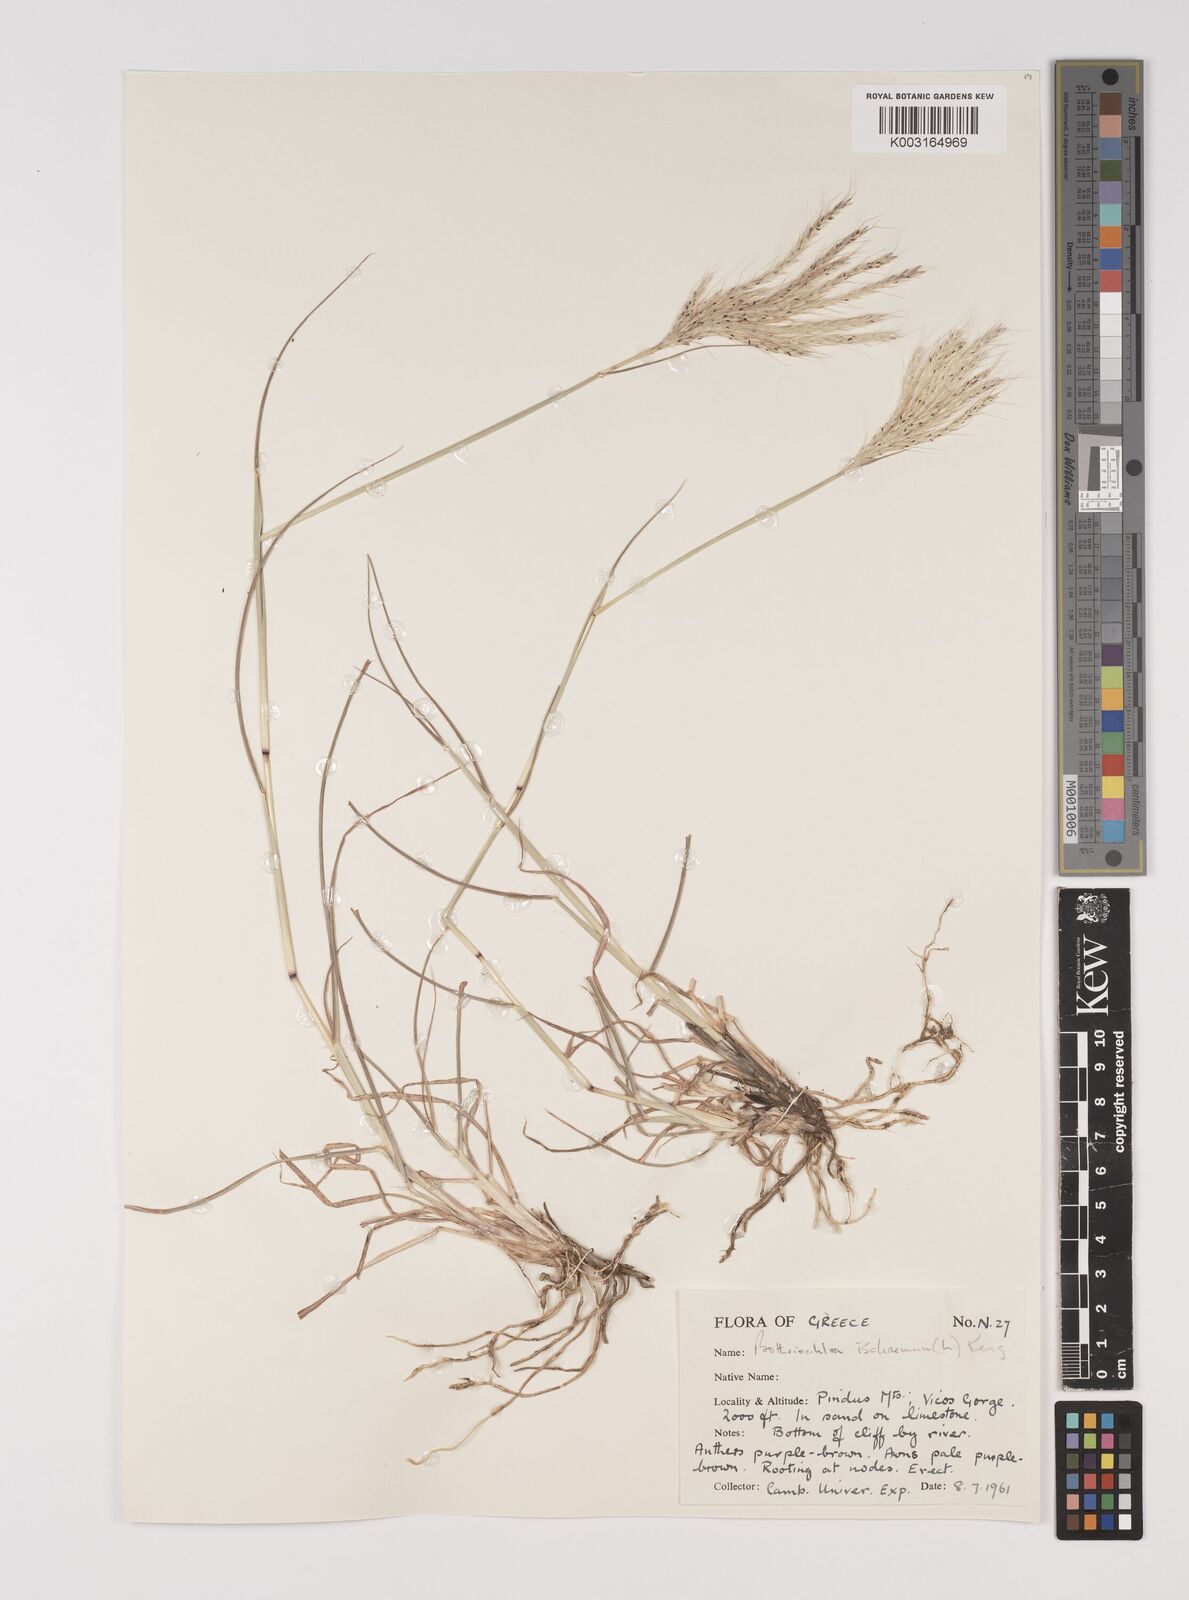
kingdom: Plantae
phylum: Tracheophyta
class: Liliopsida
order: Poales
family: Poaceae
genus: Bothriochloa
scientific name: Bothriochloa ischaemum
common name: Yellow bluestem
